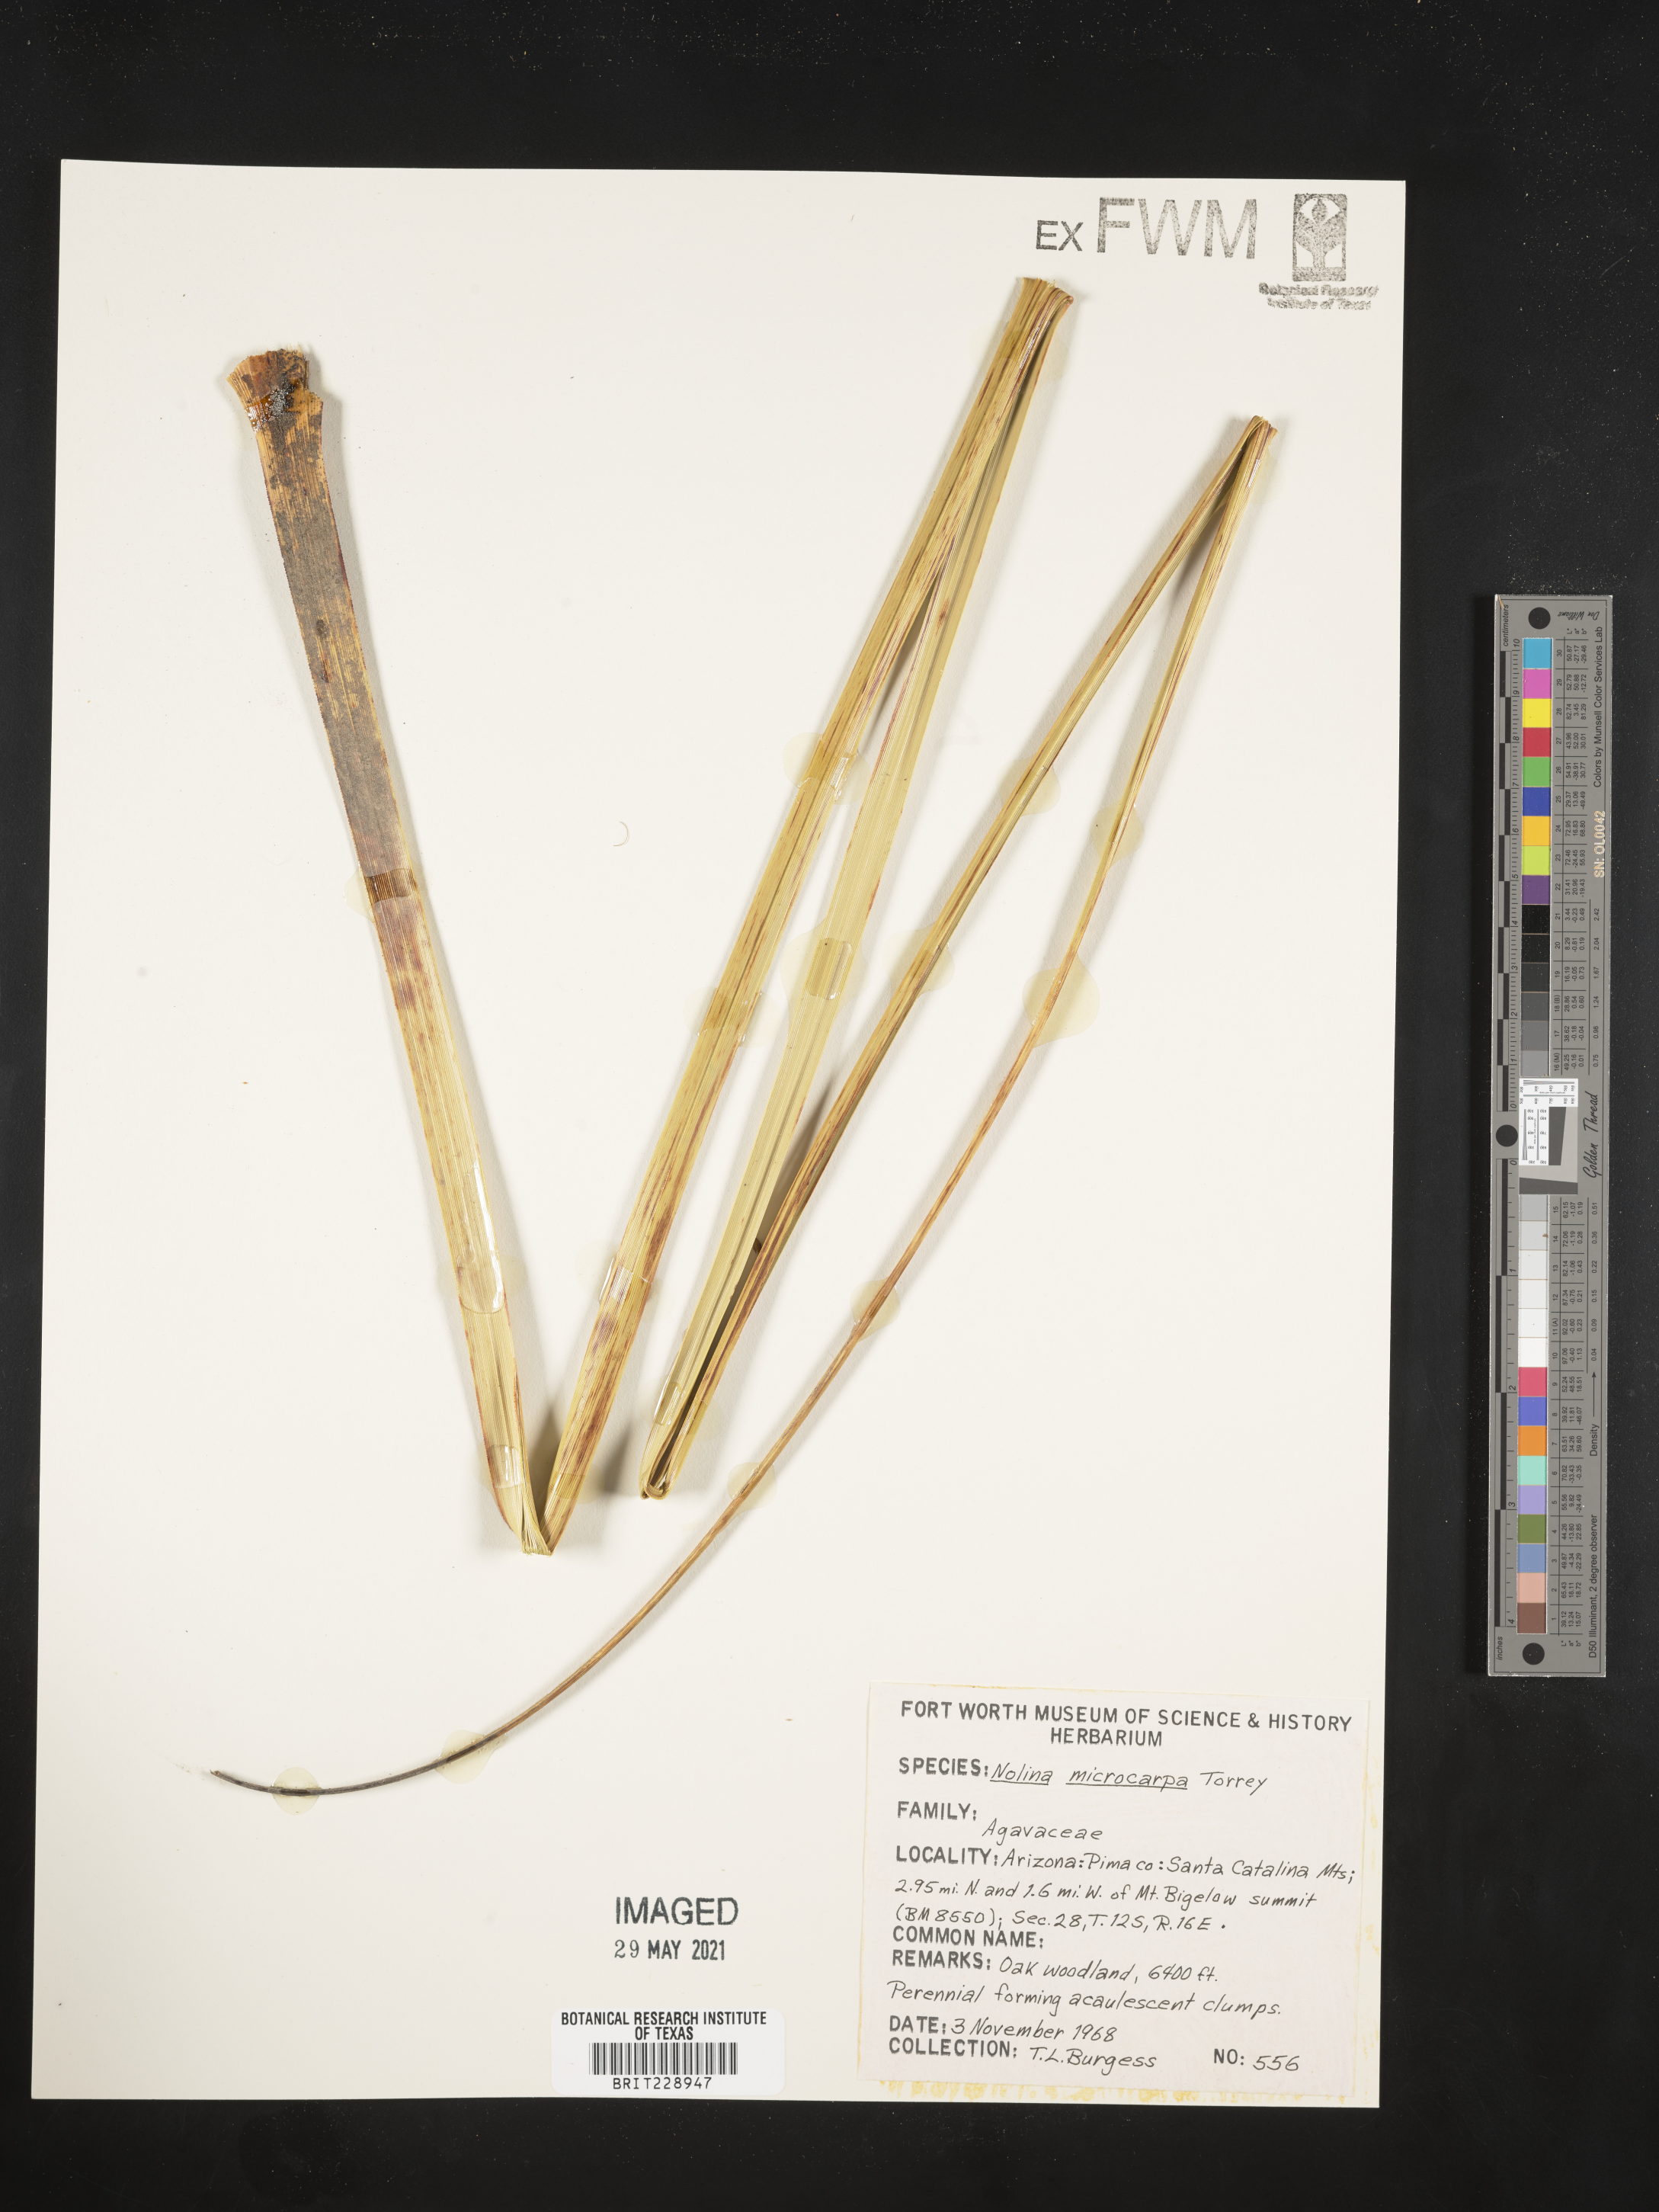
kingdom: Plantae
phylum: Tracheophyta
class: Liliopsida
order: Asparagales
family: Asparagaceae
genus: Nolina
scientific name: Nolina microcarpa
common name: Bear-grass
